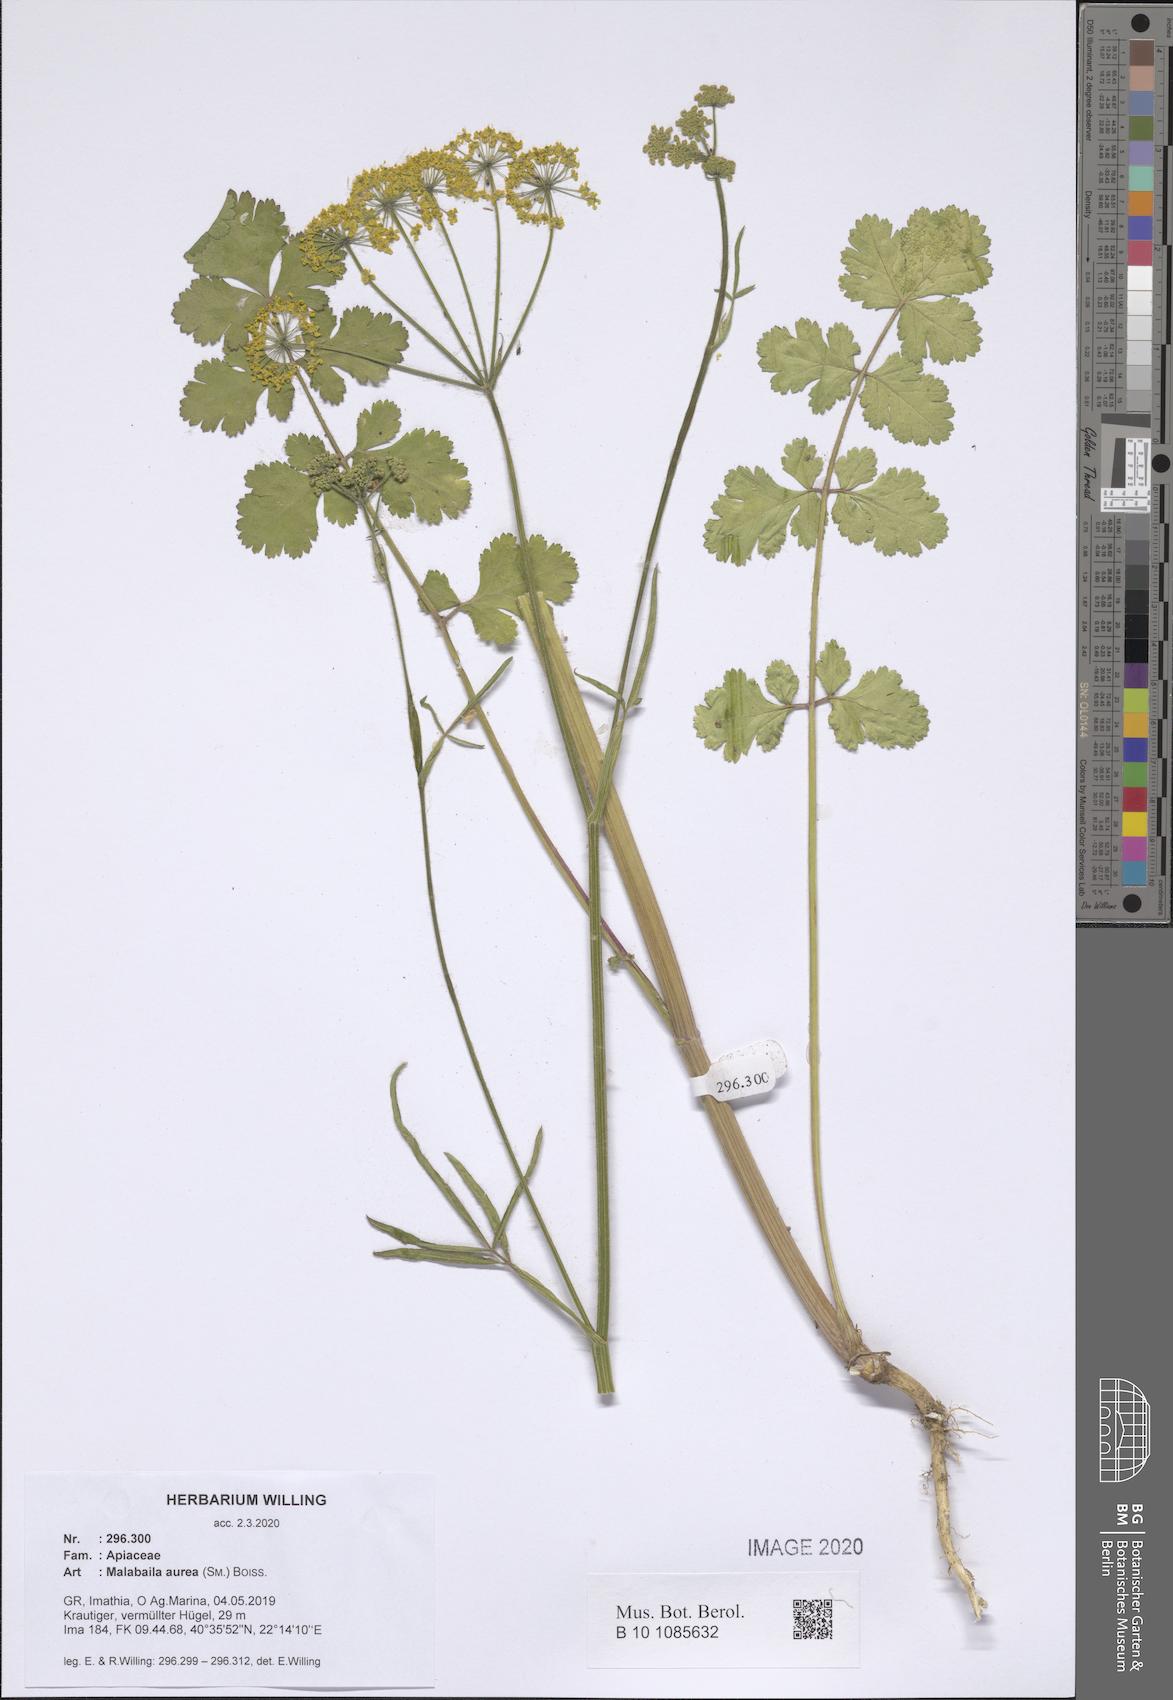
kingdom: Plantae
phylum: Tracheophyta
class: Magnoliopsida
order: Apiales
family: Apiaceae
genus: Leiotulus
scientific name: Leiotulus aureus
